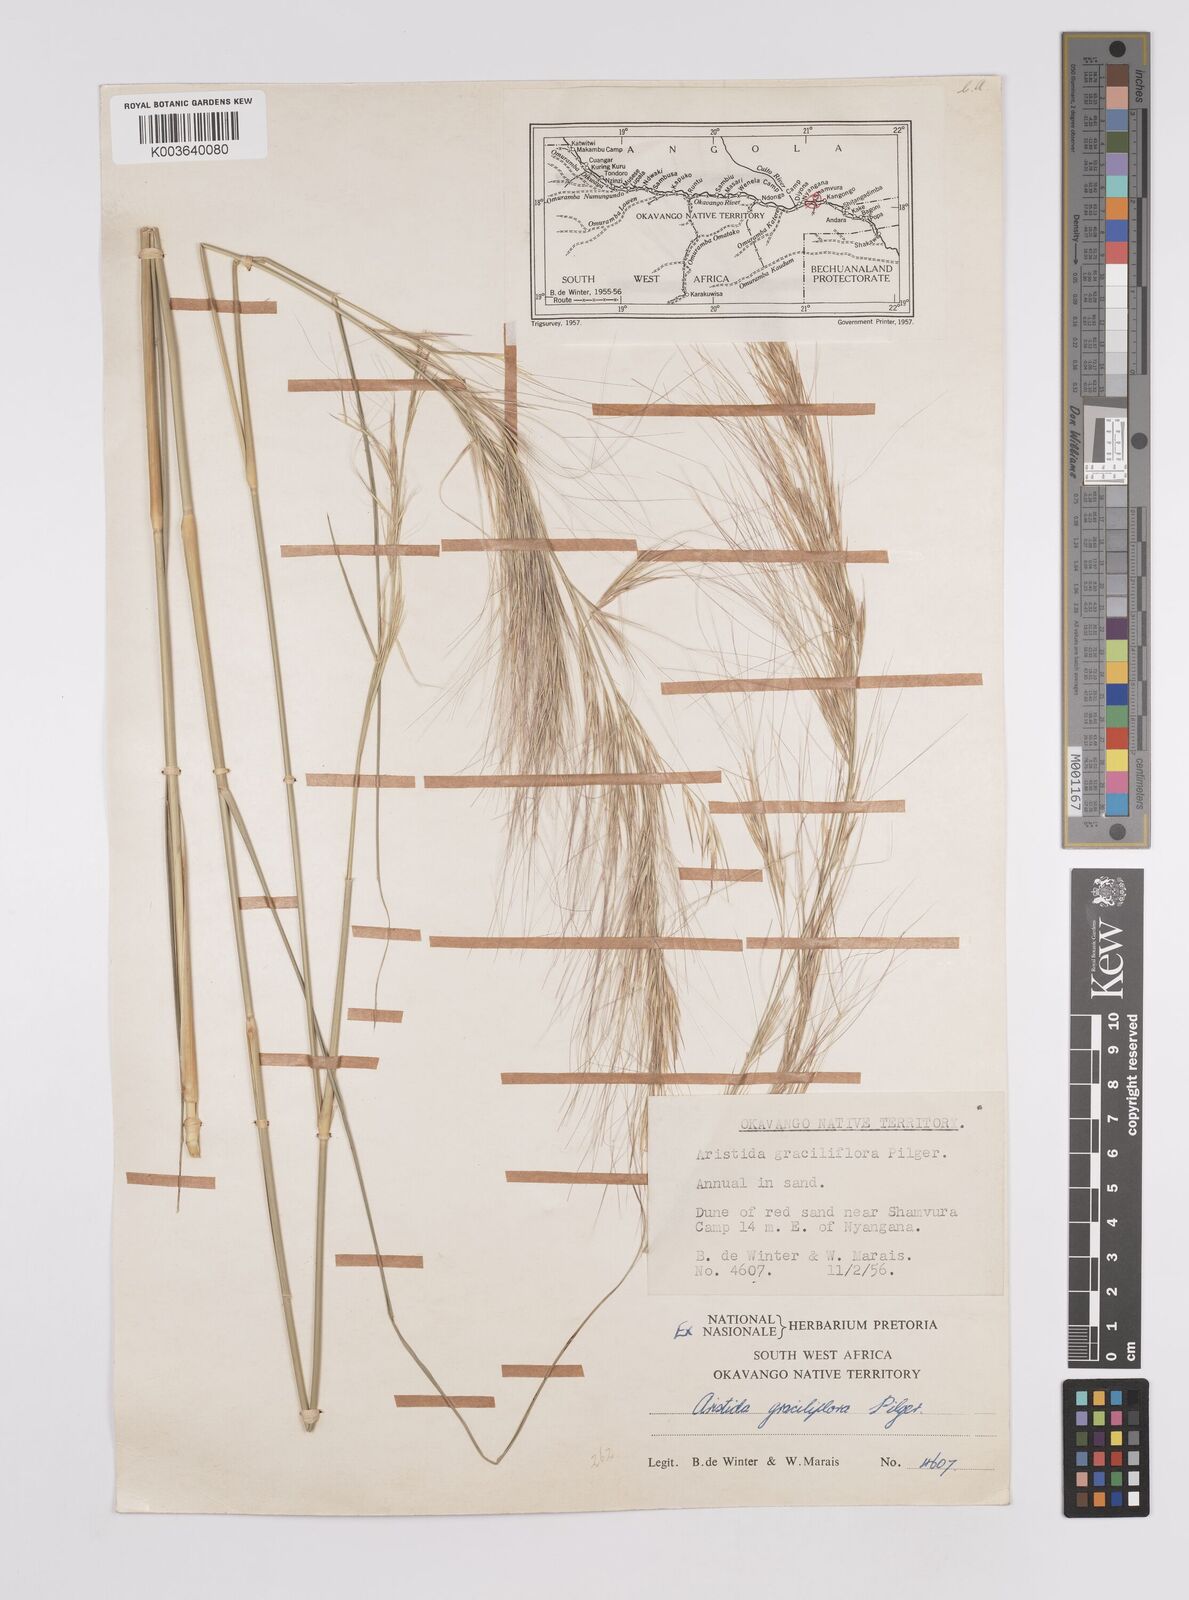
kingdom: Plantae
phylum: Tracheophyta
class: Liliopsida
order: Poales
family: Poaceae
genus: Aristida
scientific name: Aristida stipitata
